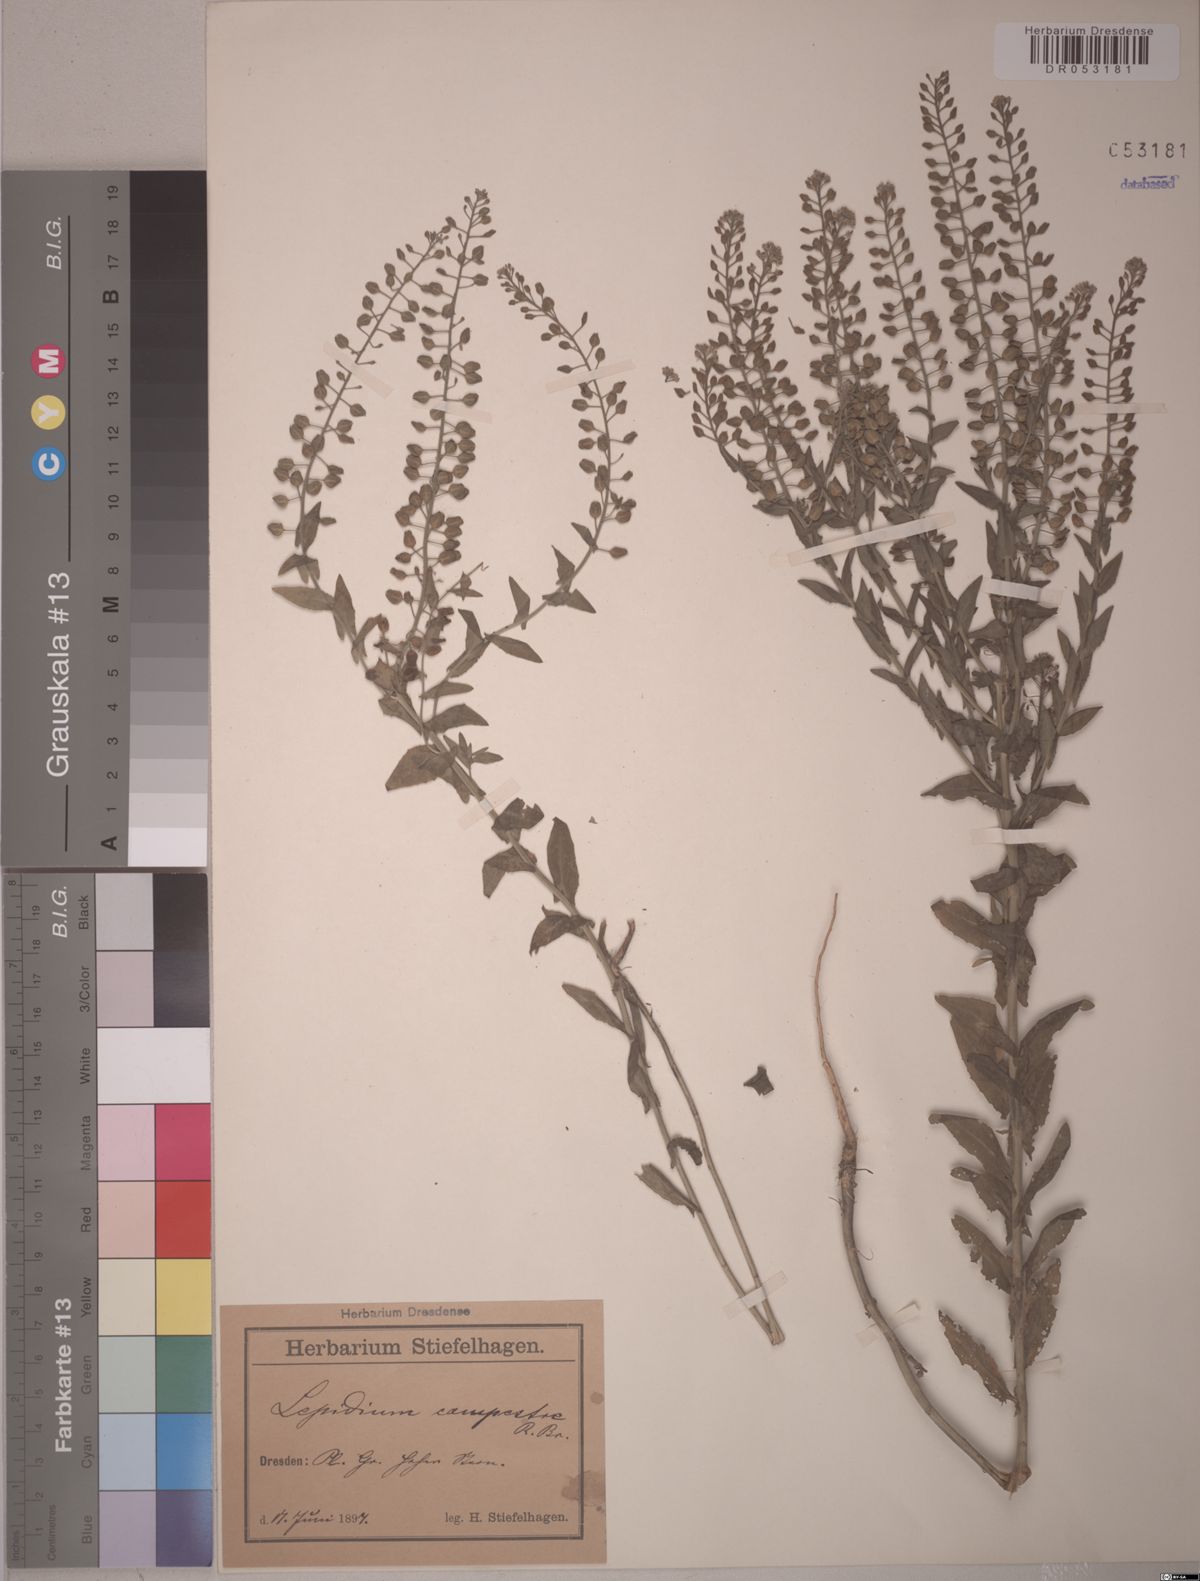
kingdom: Plantae
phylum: Tracheophyta
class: Magnoliopsida
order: Brassicales
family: Brassicaceae
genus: Lepidium
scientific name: Lepidium campestre
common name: Field pepperwort
